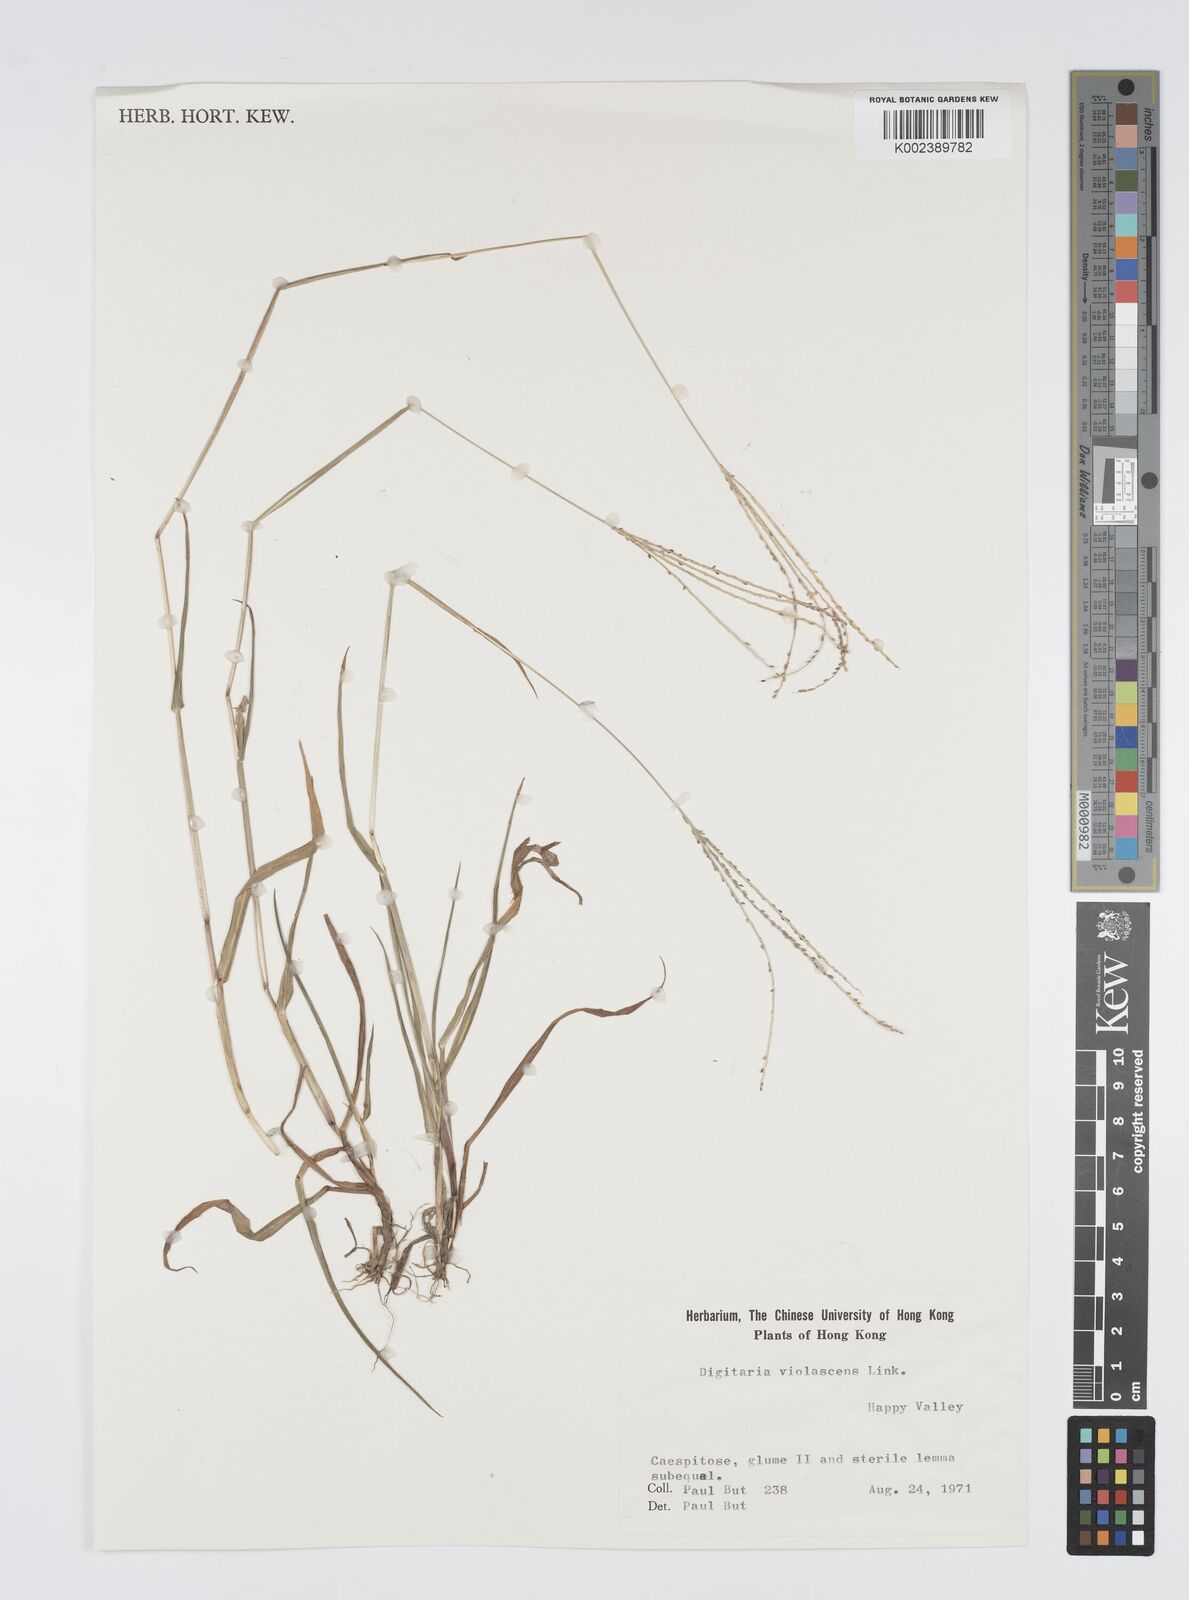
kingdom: Plantae
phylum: Tracheophyta
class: Liliopsida
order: Poales
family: Poaceae
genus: Digitaria
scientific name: Digitaria violascens
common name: Violet crabgrass
